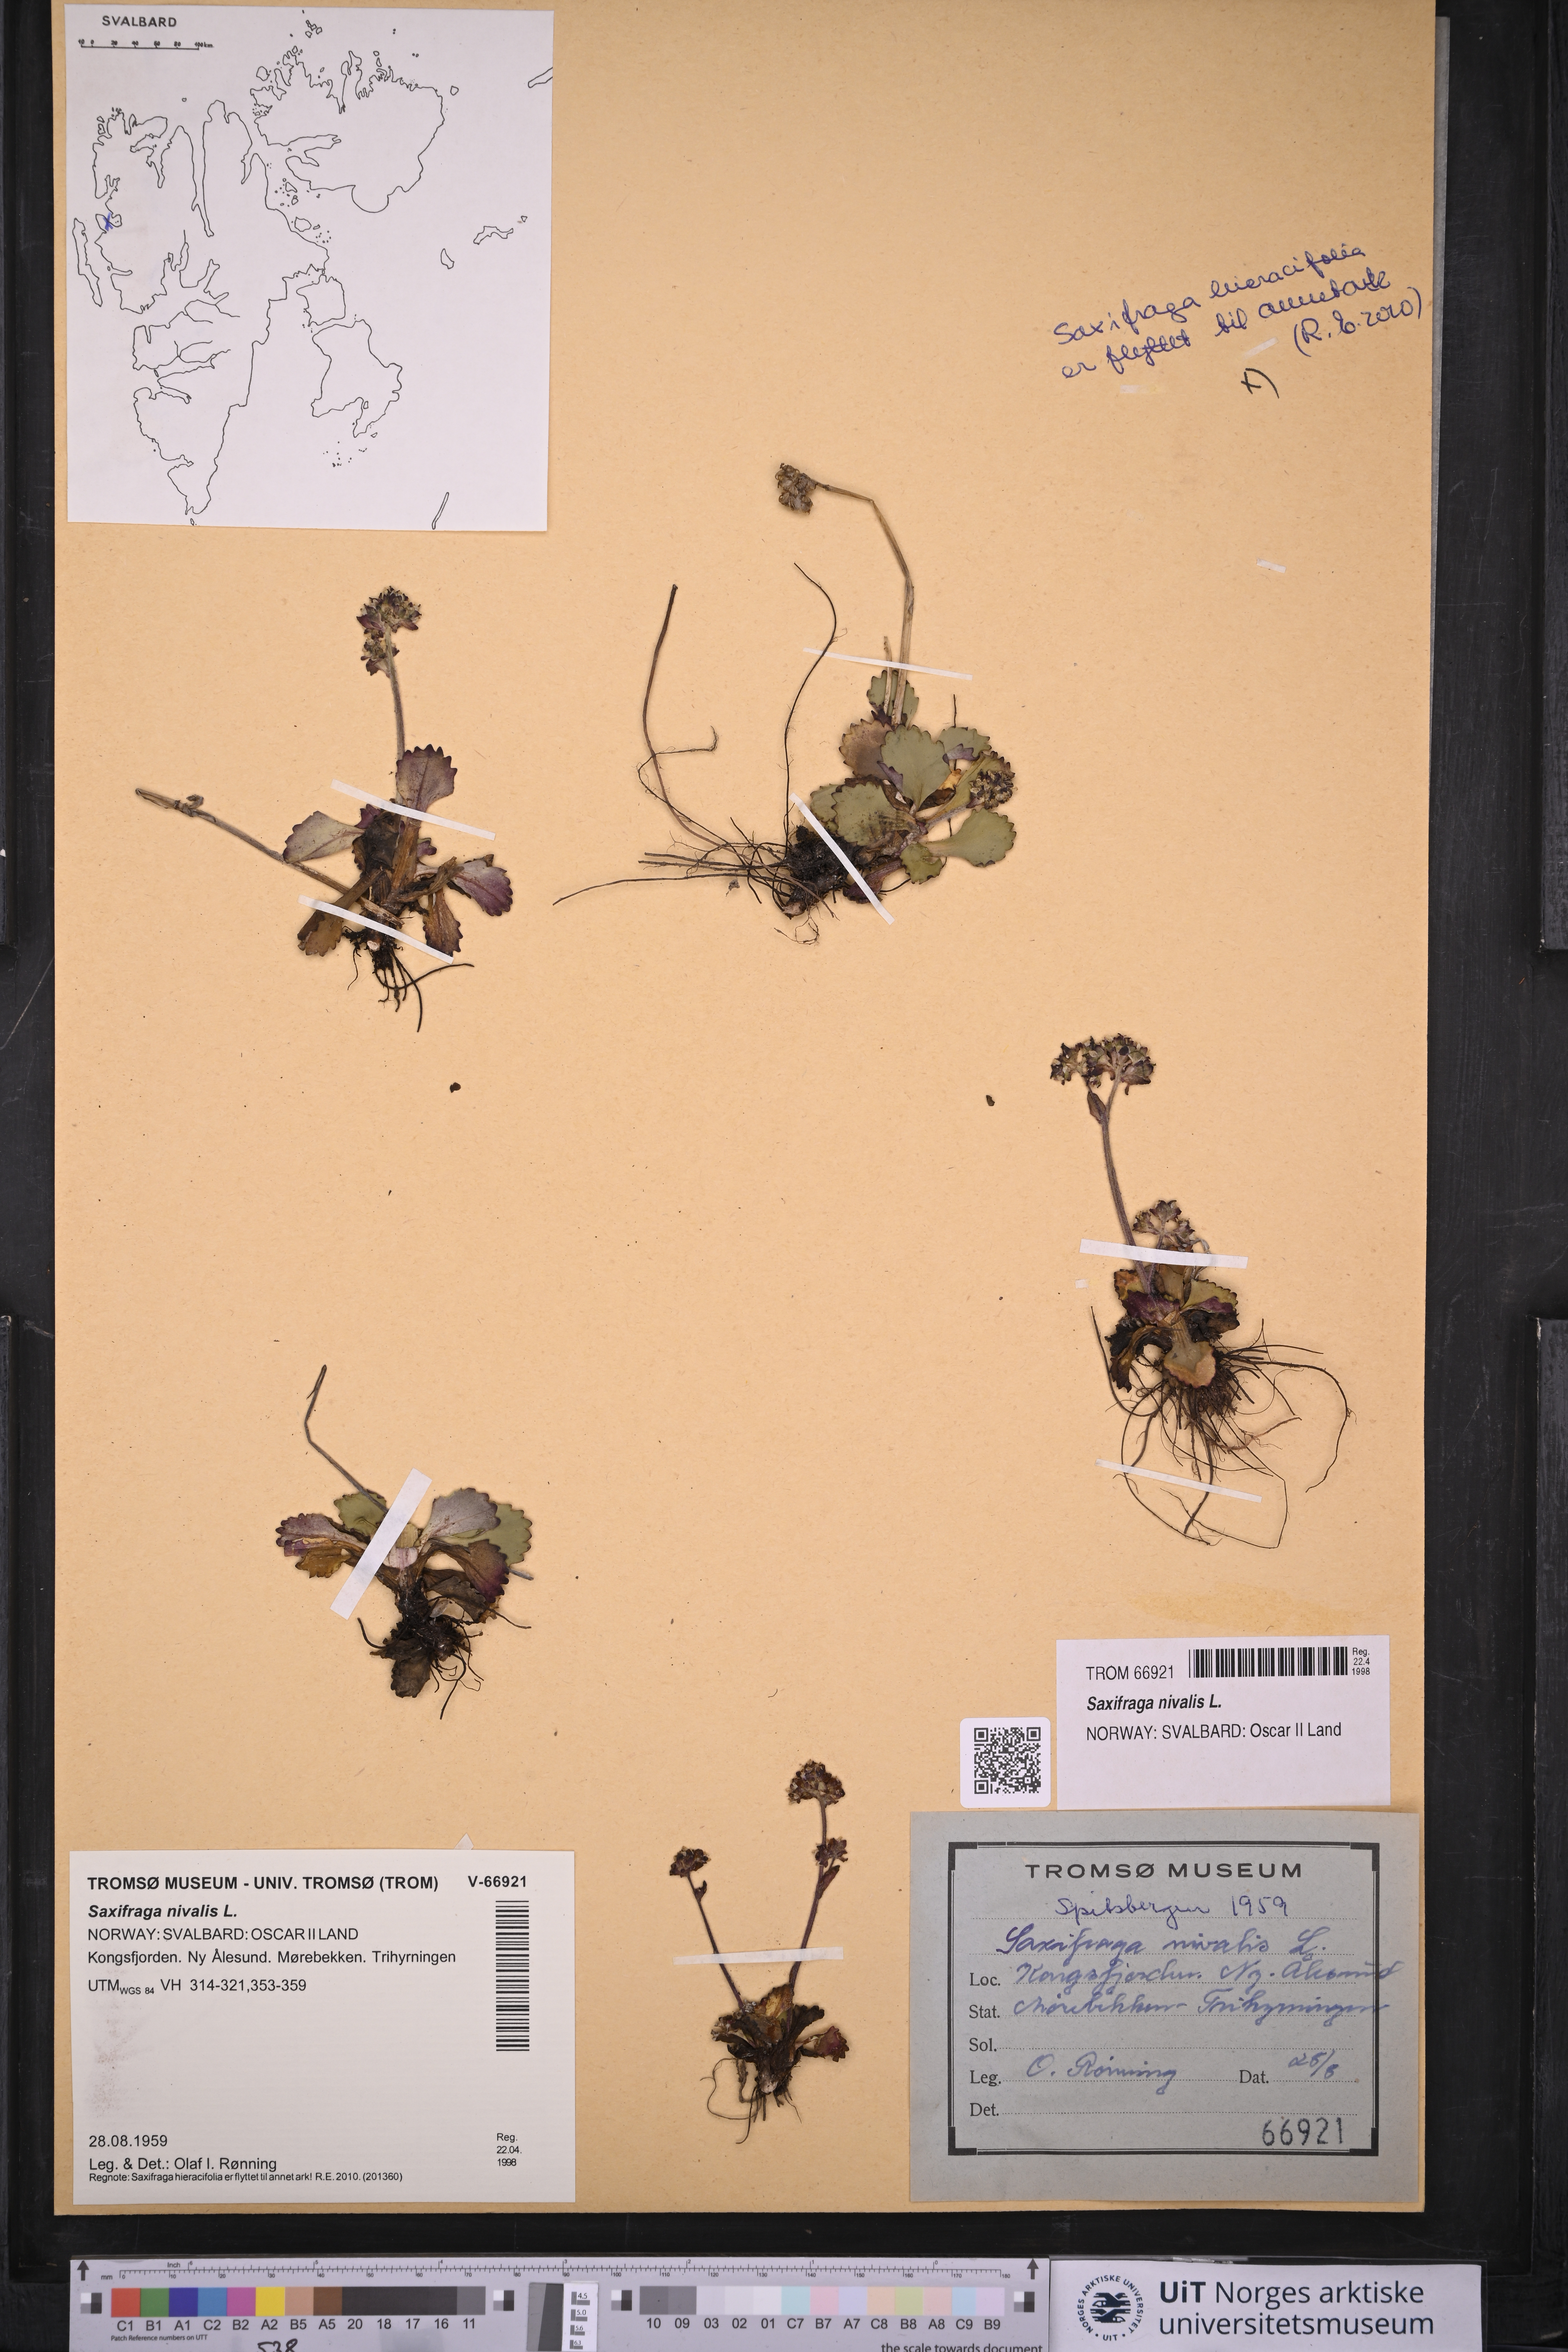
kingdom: Plantae
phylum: Tracheophyta
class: Magnoliopsida
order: Saxifragales
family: Saxifragaceae
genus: Micranthes
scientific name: Micranthes nivalis
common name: Alpine saxifrage
